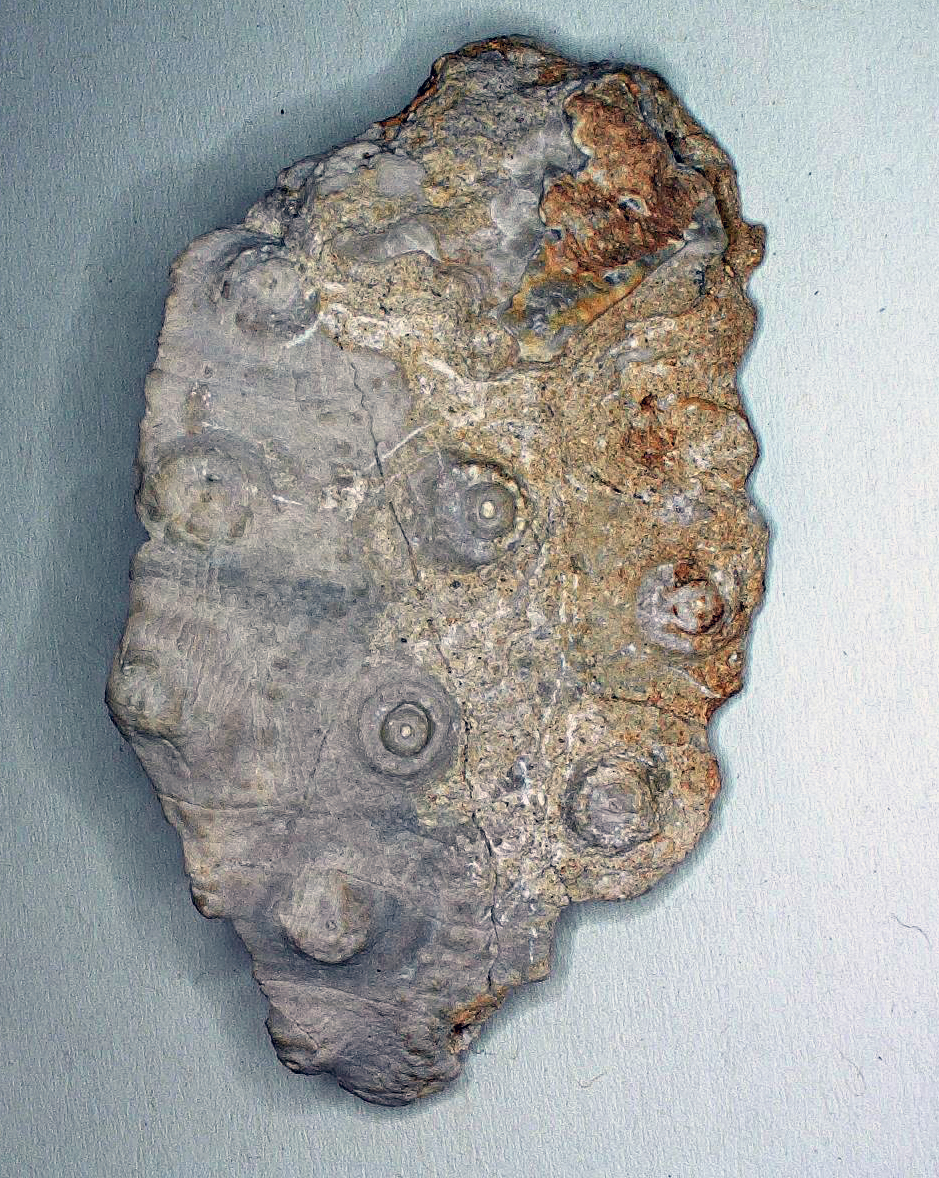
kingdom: Animalia
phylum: Echinodermata
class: Echinoidea
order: Cidaroida
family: Heterocidaridae
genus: Heterocidaris
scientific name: Heterocidaris
